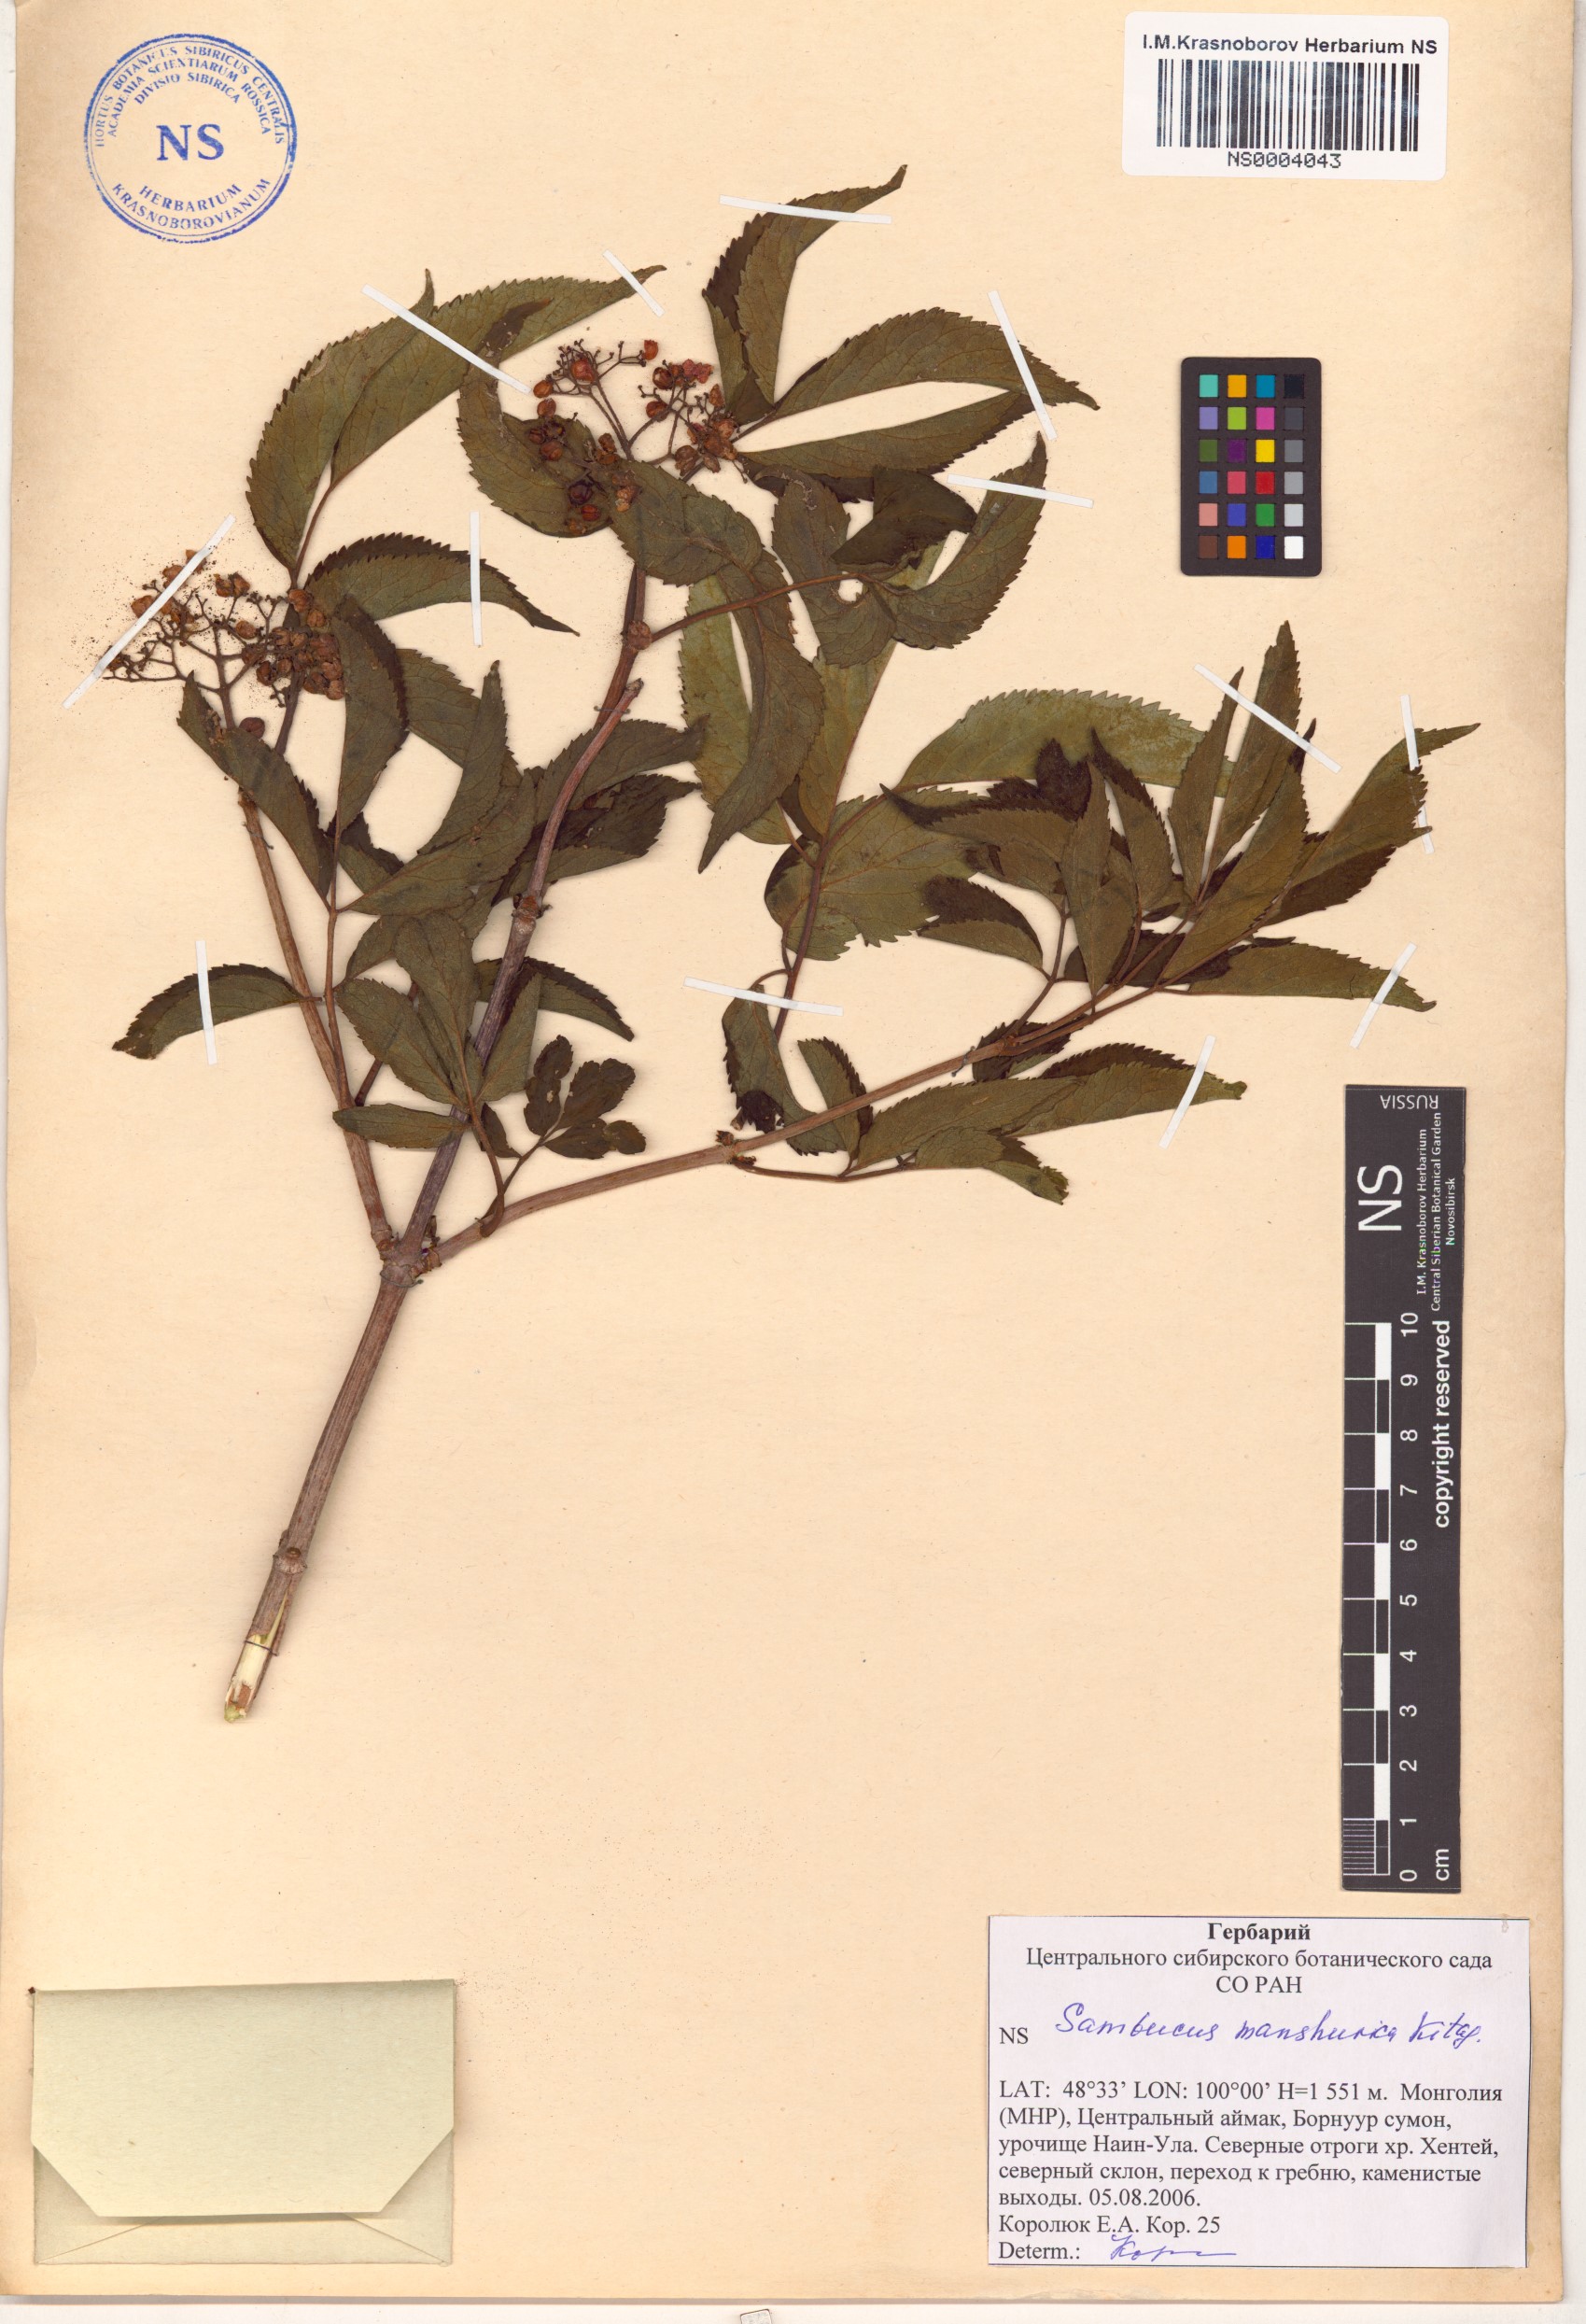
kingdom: Plantae
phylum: Tracheophyta
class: Magnoliopsida
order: Dipsacales
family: Viburnaceae
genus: Sambucus
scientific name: Sambucus williamsii
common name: William's elder
